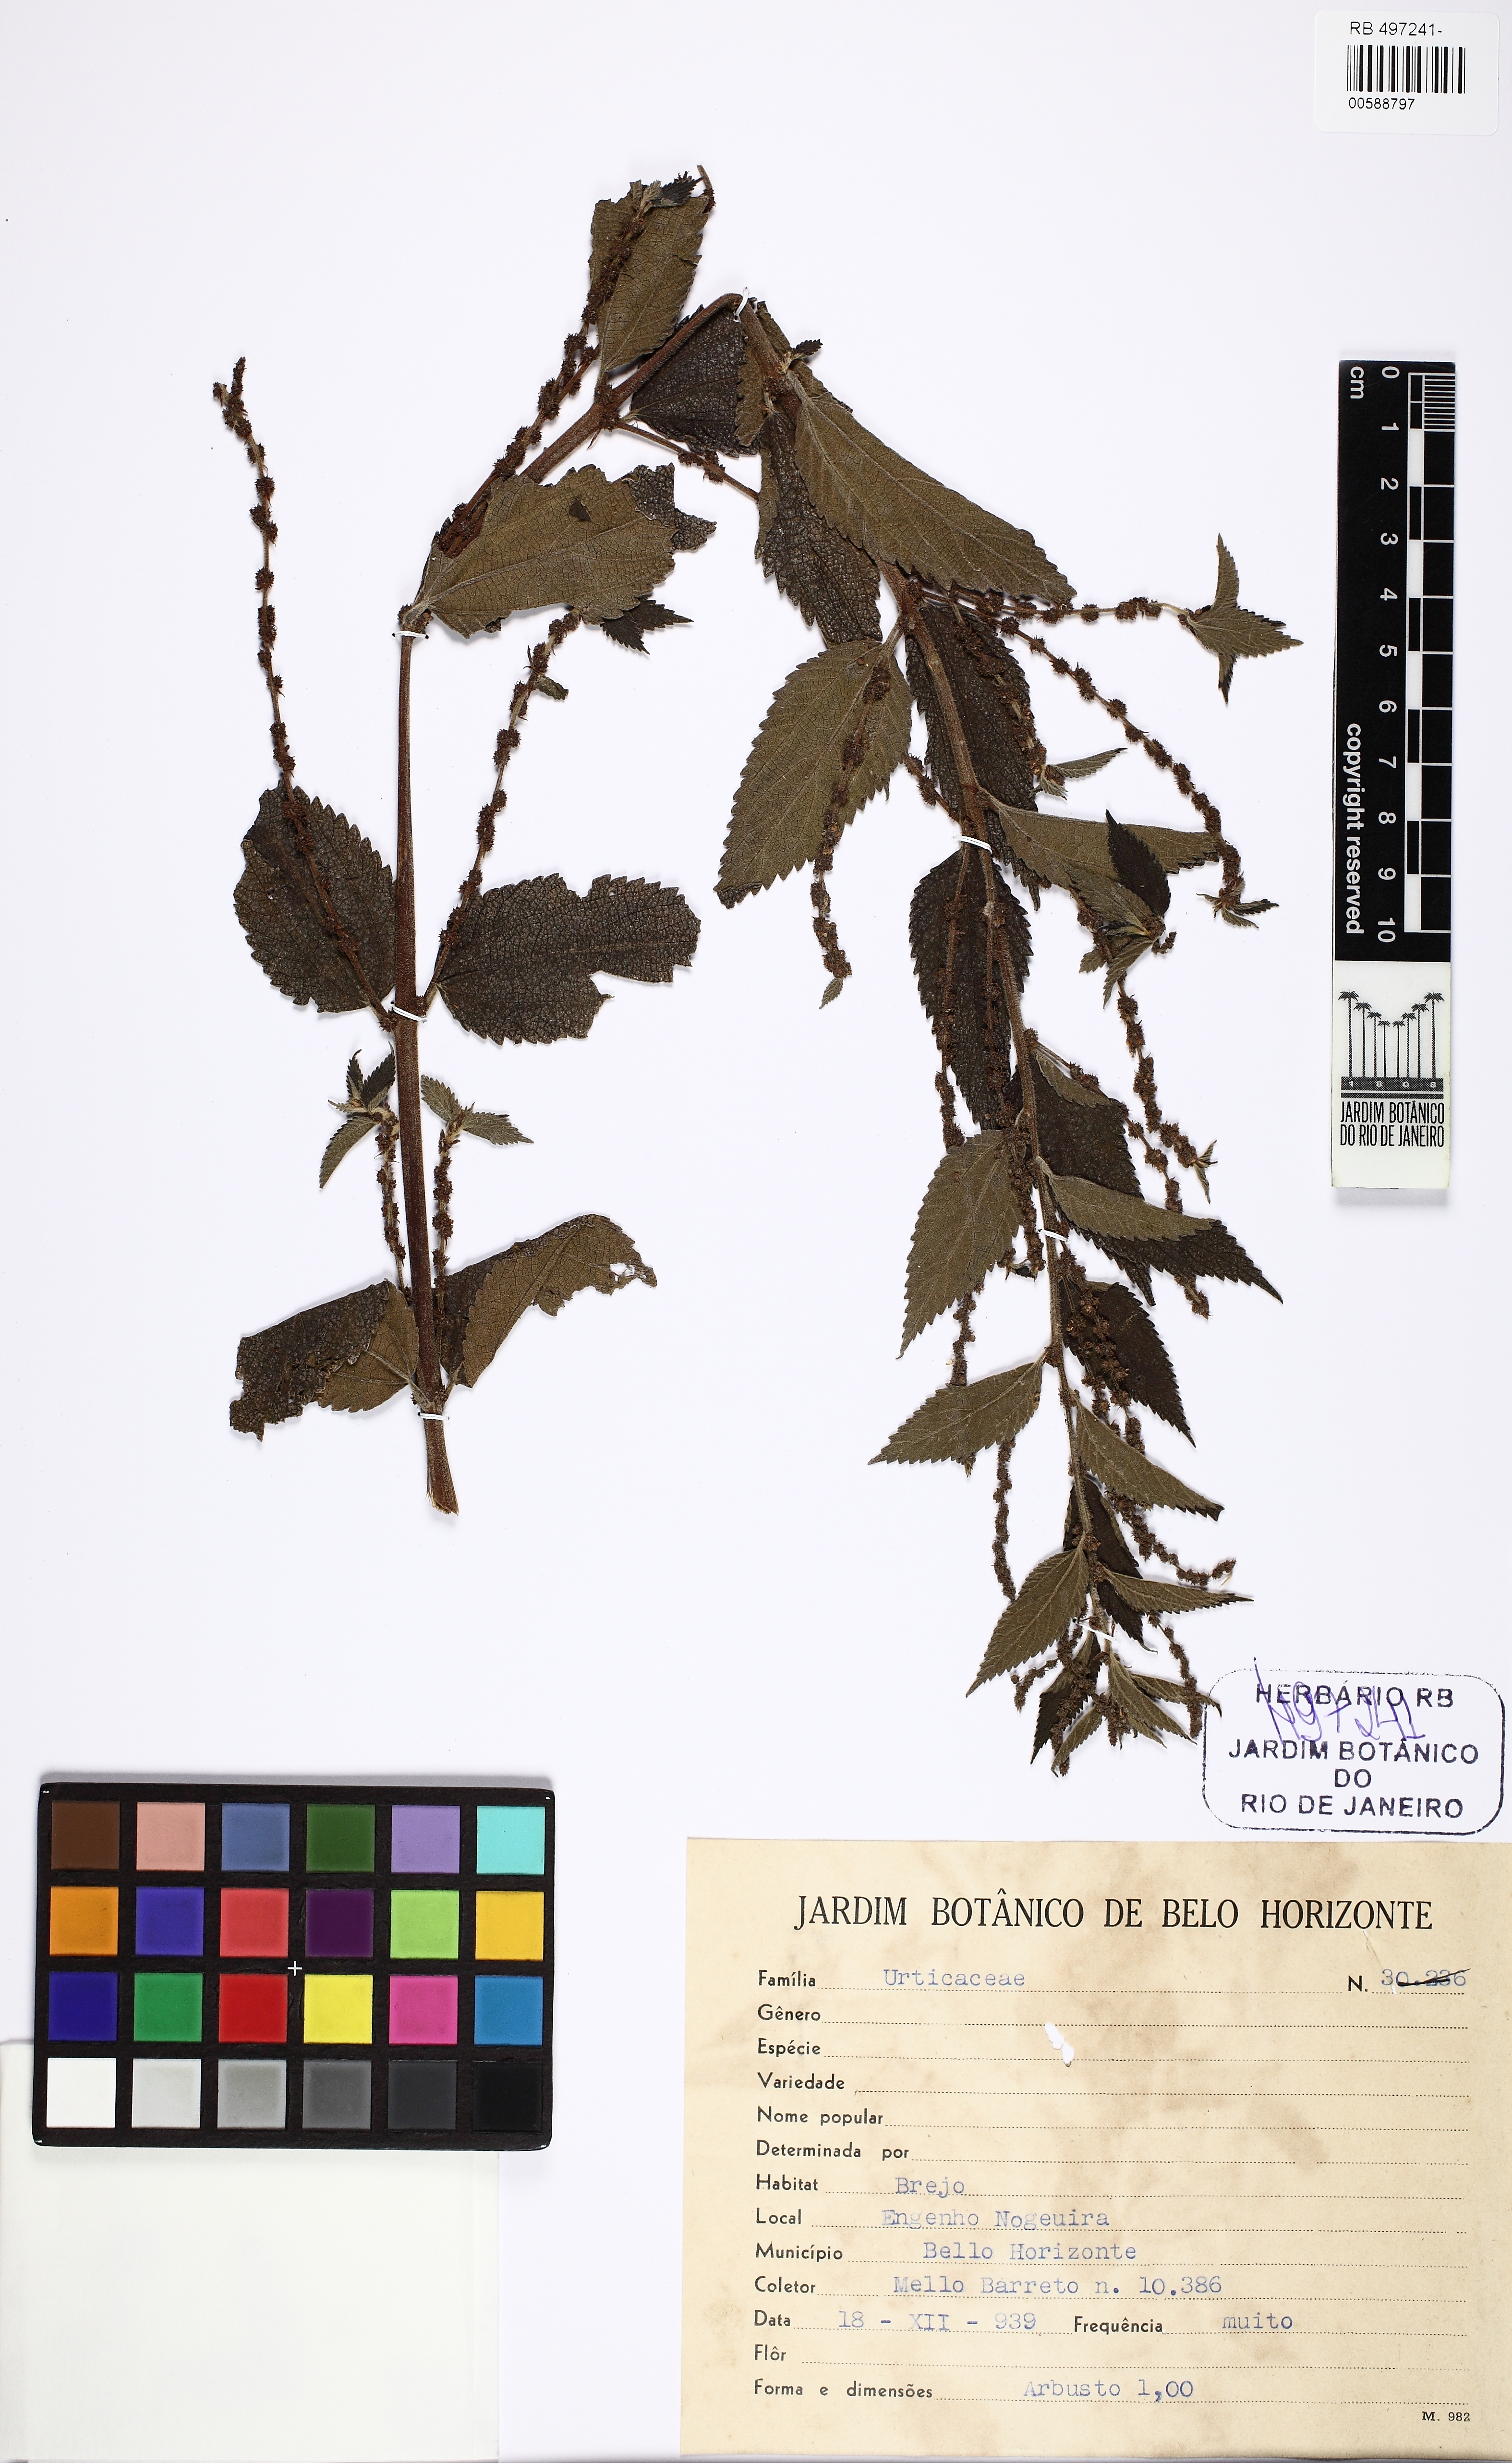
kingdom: Plantae
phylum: Tracheophyta
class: Magnoliopsida
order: Rosales
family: Urticaceae
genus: Urtica
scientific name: Urtica dioica
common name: Common nettle
